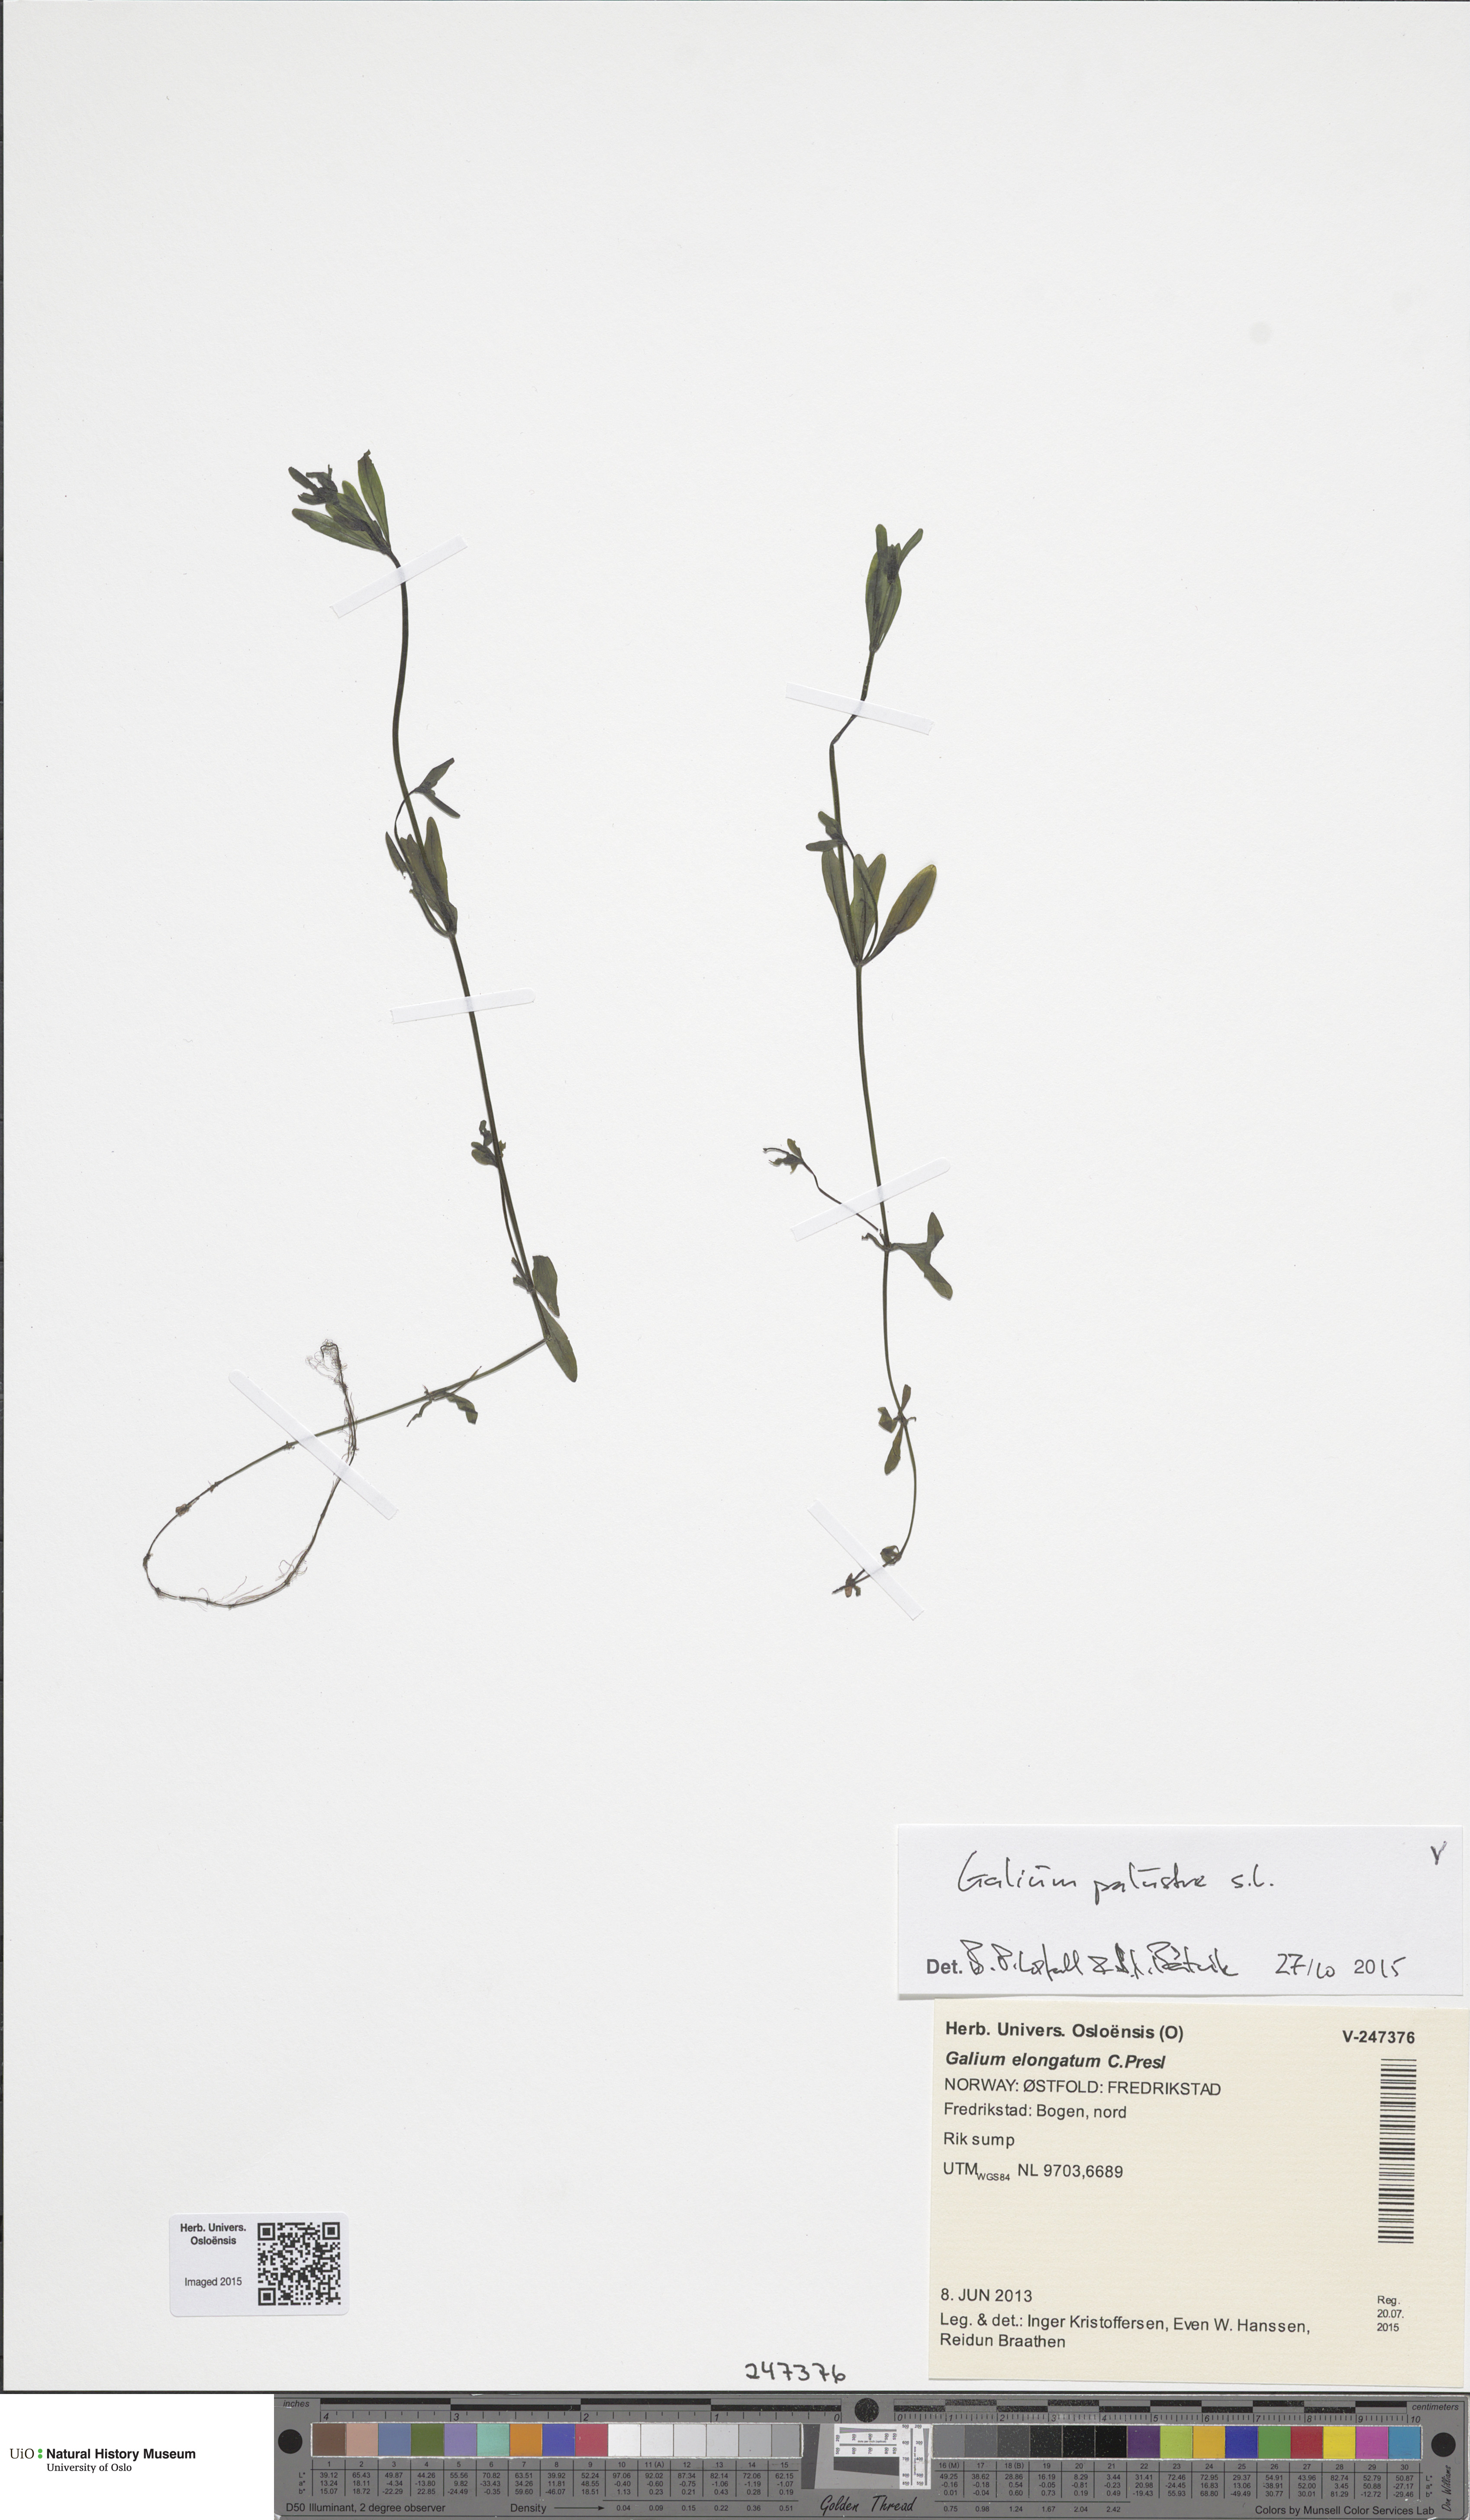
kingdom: Plantae
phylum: Tracheophyta
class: Magnoliopsida
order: Gentianales
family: Rubiaceae
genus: Galium
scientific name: Galium palustre
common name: Common marsh-bedstraw
